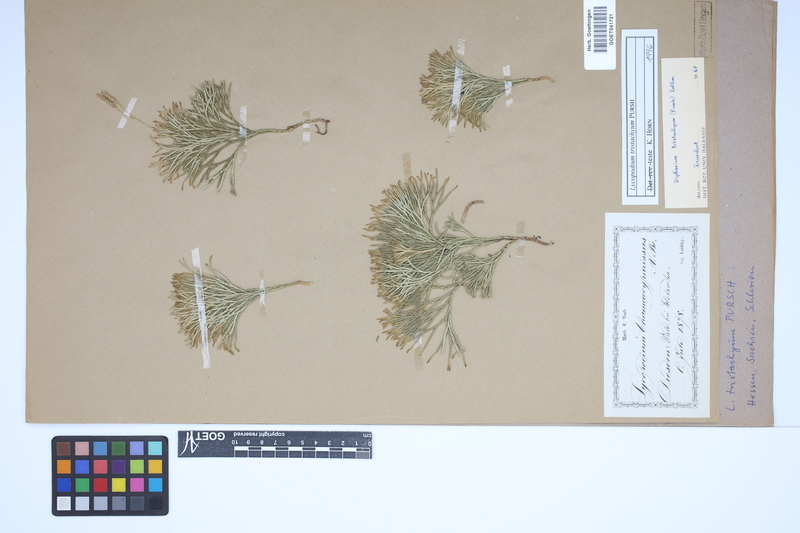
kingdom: Plantae
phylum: Tracheophyta
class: Lycopodiopsida
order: Lycopodiales
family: Lycopodiaceae
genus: Diphasiastrum
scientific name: Diphasiastrum tristachyum
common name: Blue ground-cedar
